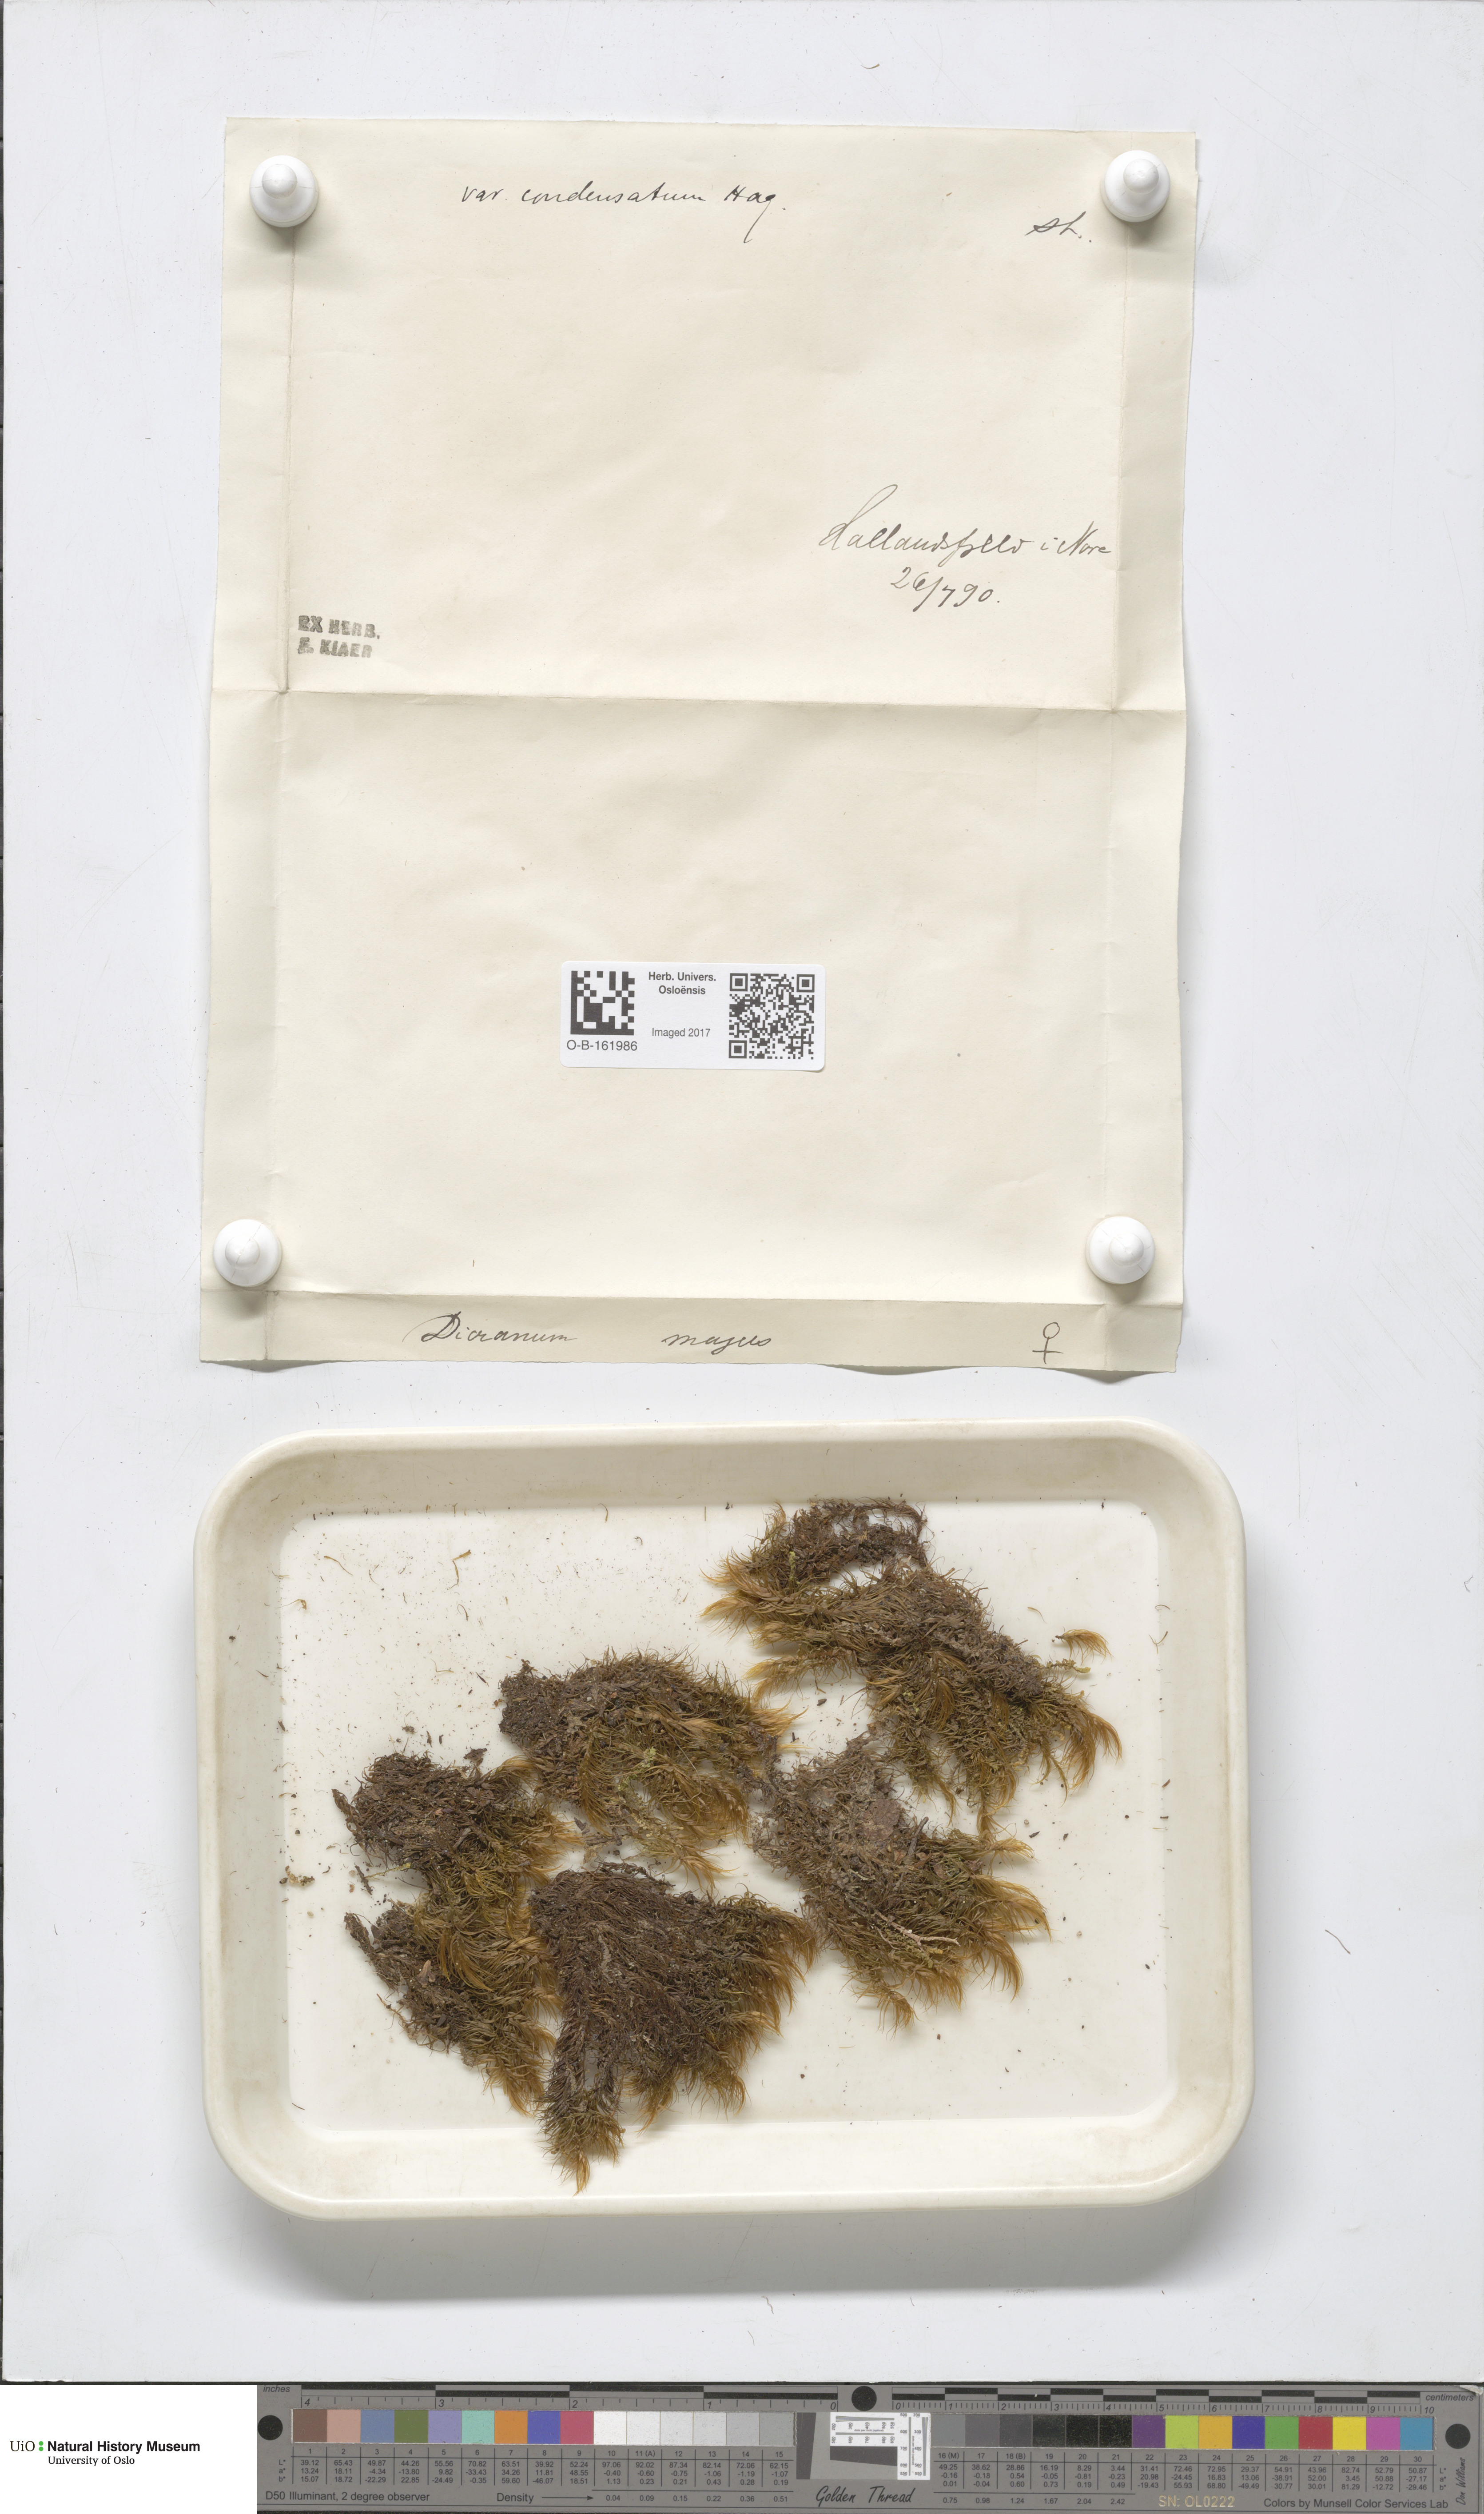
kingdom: Plantae
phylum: Bryophyta
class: Bryopsida
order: Dicranales
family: Dicranaceae
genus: Dicranum
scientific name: Dicranum majus
